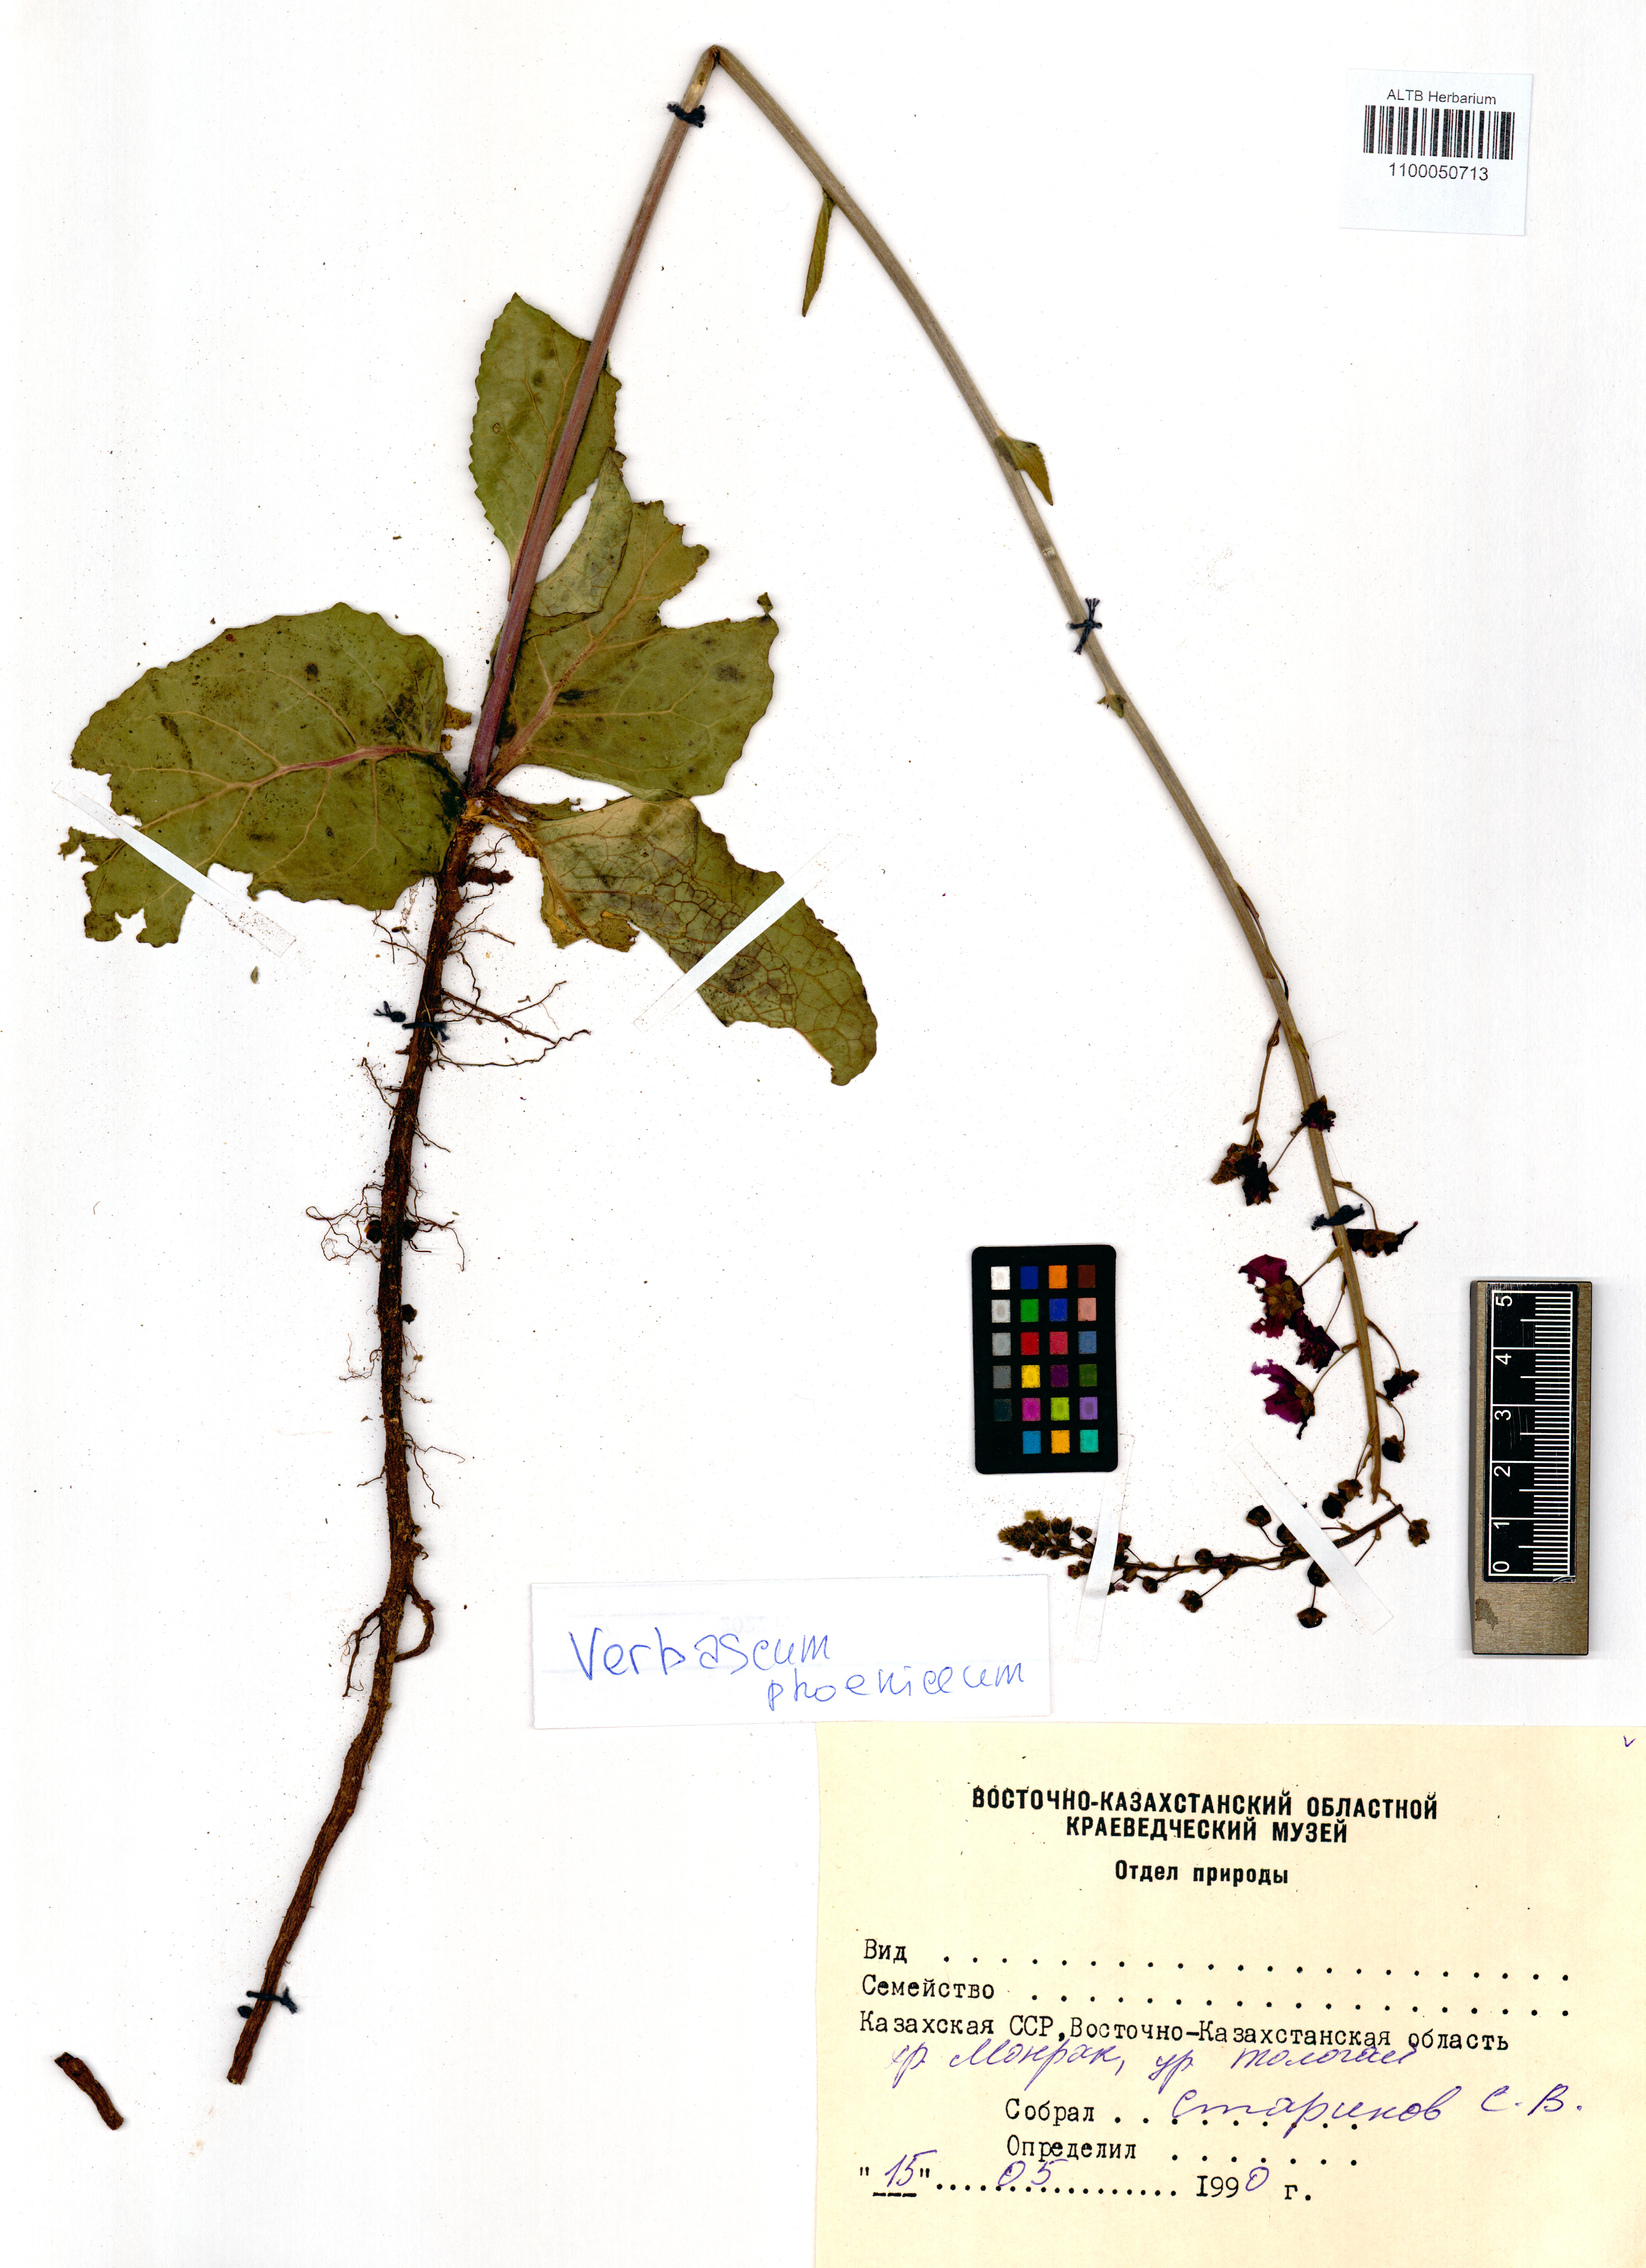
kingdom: Plantae
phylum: Tracheophyta
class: Magnoliopsida
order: Lamiales
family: Scrophulariaceae
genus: Verbascum
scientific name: Verbascum phoeniceum
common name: Purple mullein
